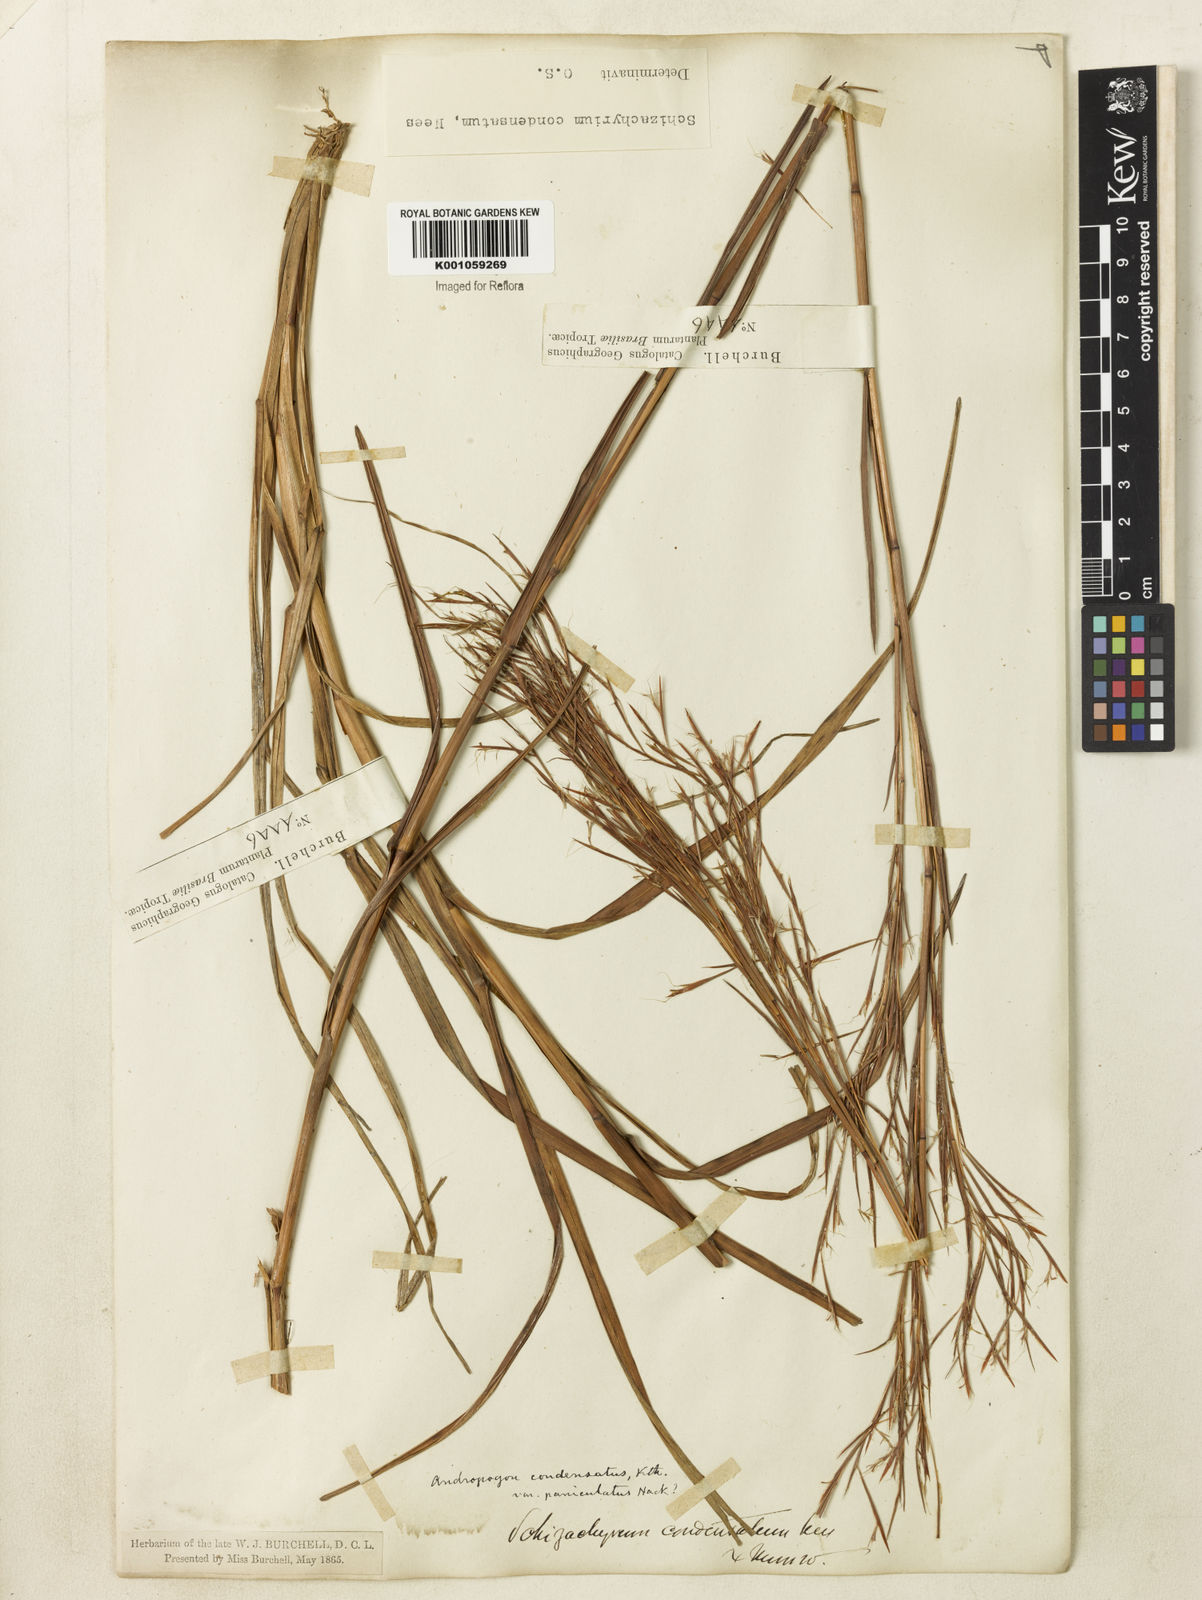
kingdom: Plantae
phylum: Tracheophyta
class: Liliopsida
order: Poales
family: Poaceae
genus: Schizachyrium
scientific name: Schizachyrium
